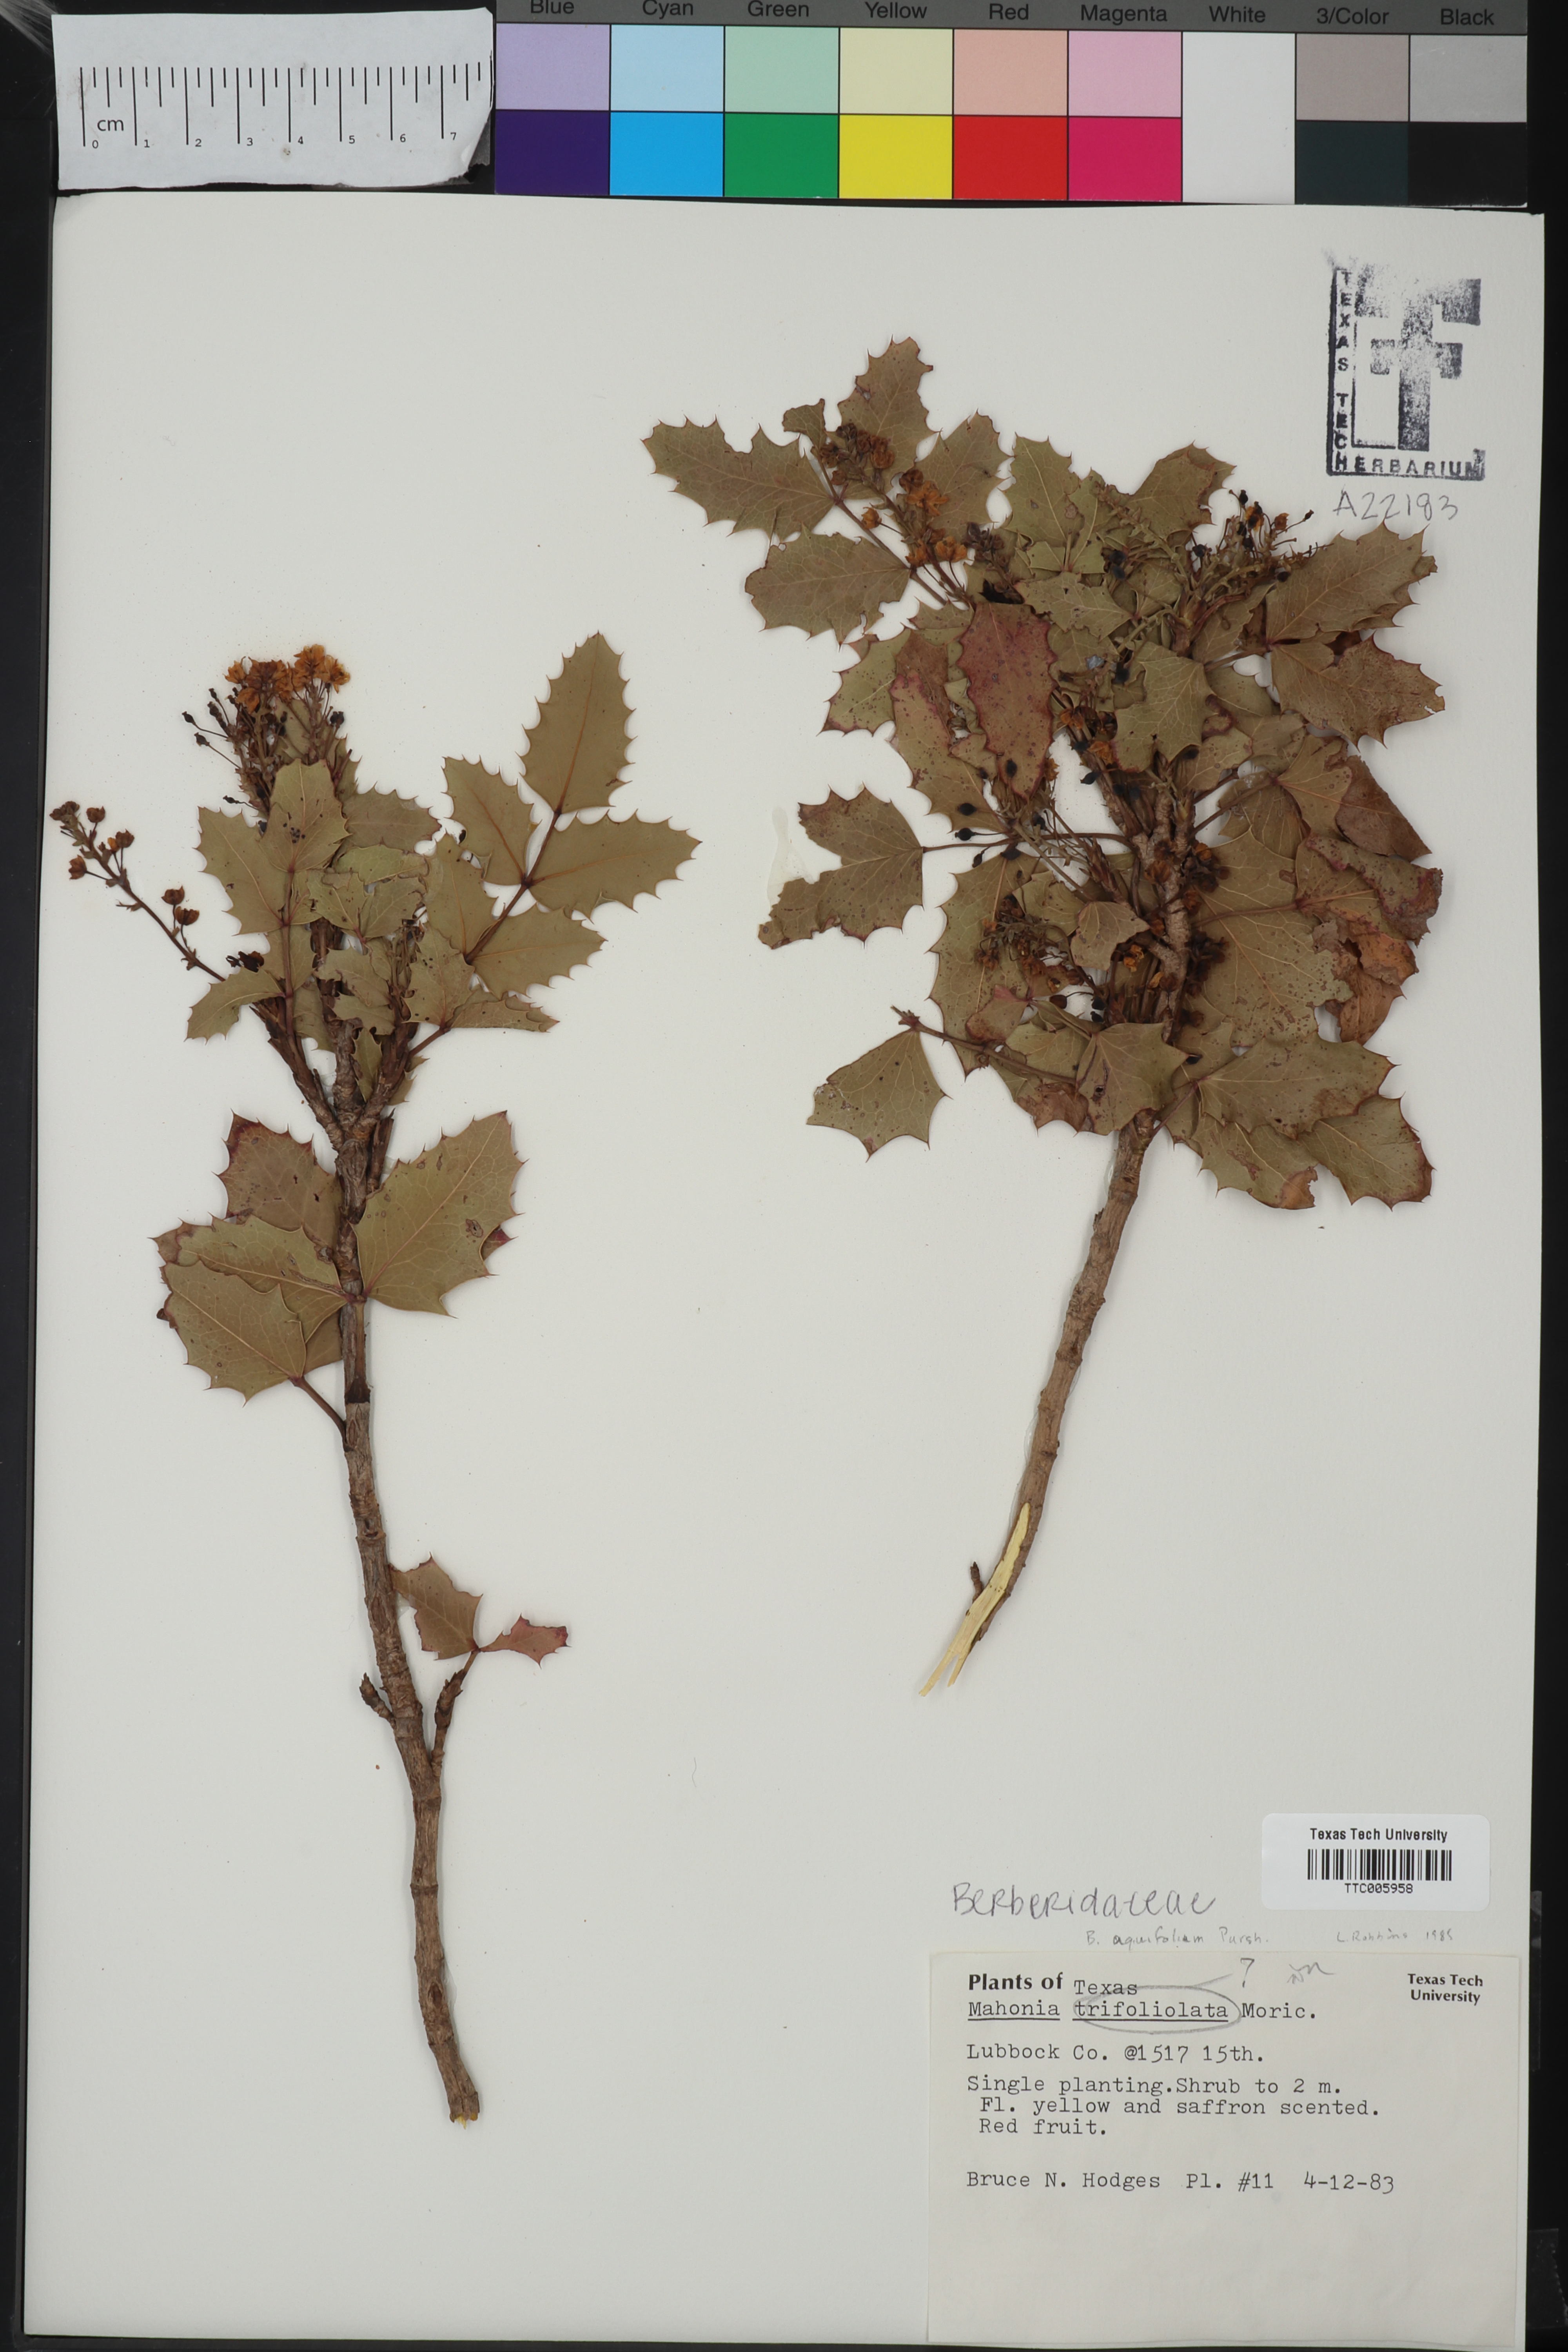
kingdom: Plantae
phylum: Tracheophyta
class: Magnoliopsida
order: Ranunculales
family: Berberidaceae
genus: Alloberberis
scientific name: Alloberberis trifoliolata
